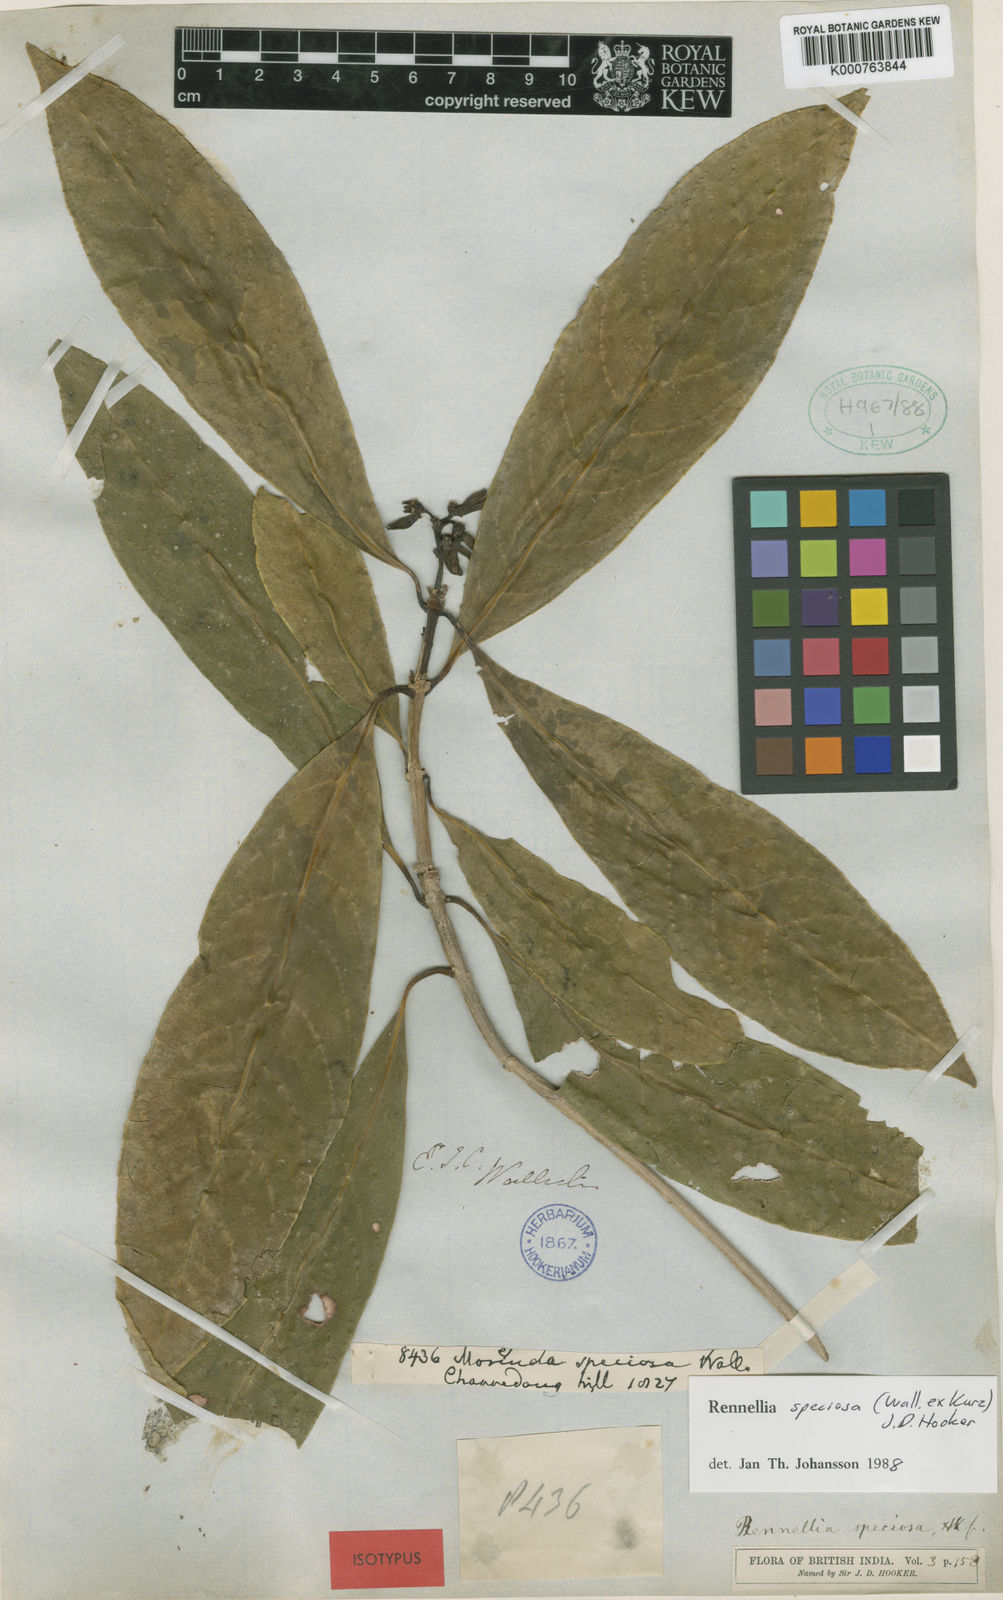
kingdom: Plantae
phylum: Tracheophyta
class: Magnoliopsida
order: Gentianales
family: Rubiaceae
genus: Rennellia
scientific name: Rennellia speciosa
